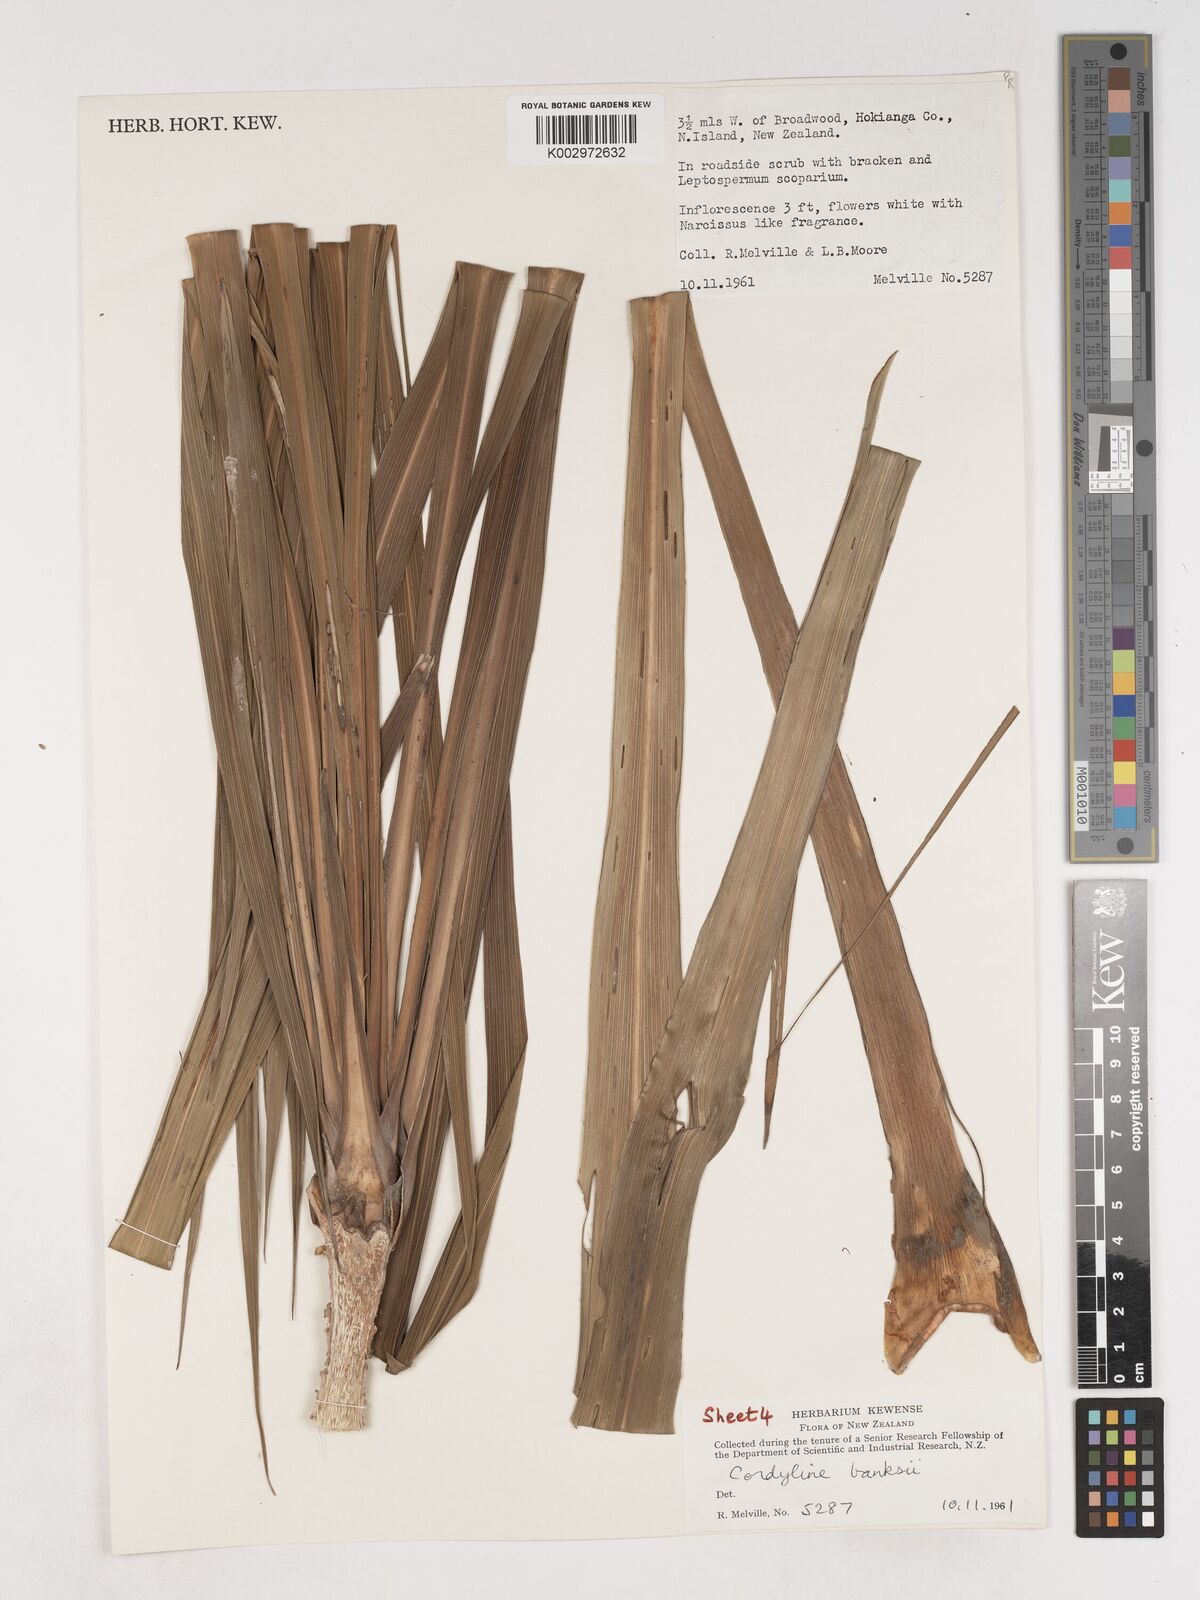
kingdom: Plantae
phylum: Tracheophyta
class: Liliopsida
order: Asparagales
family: Asparagaceae
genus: Cordyline
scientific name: Cordyline banksii
